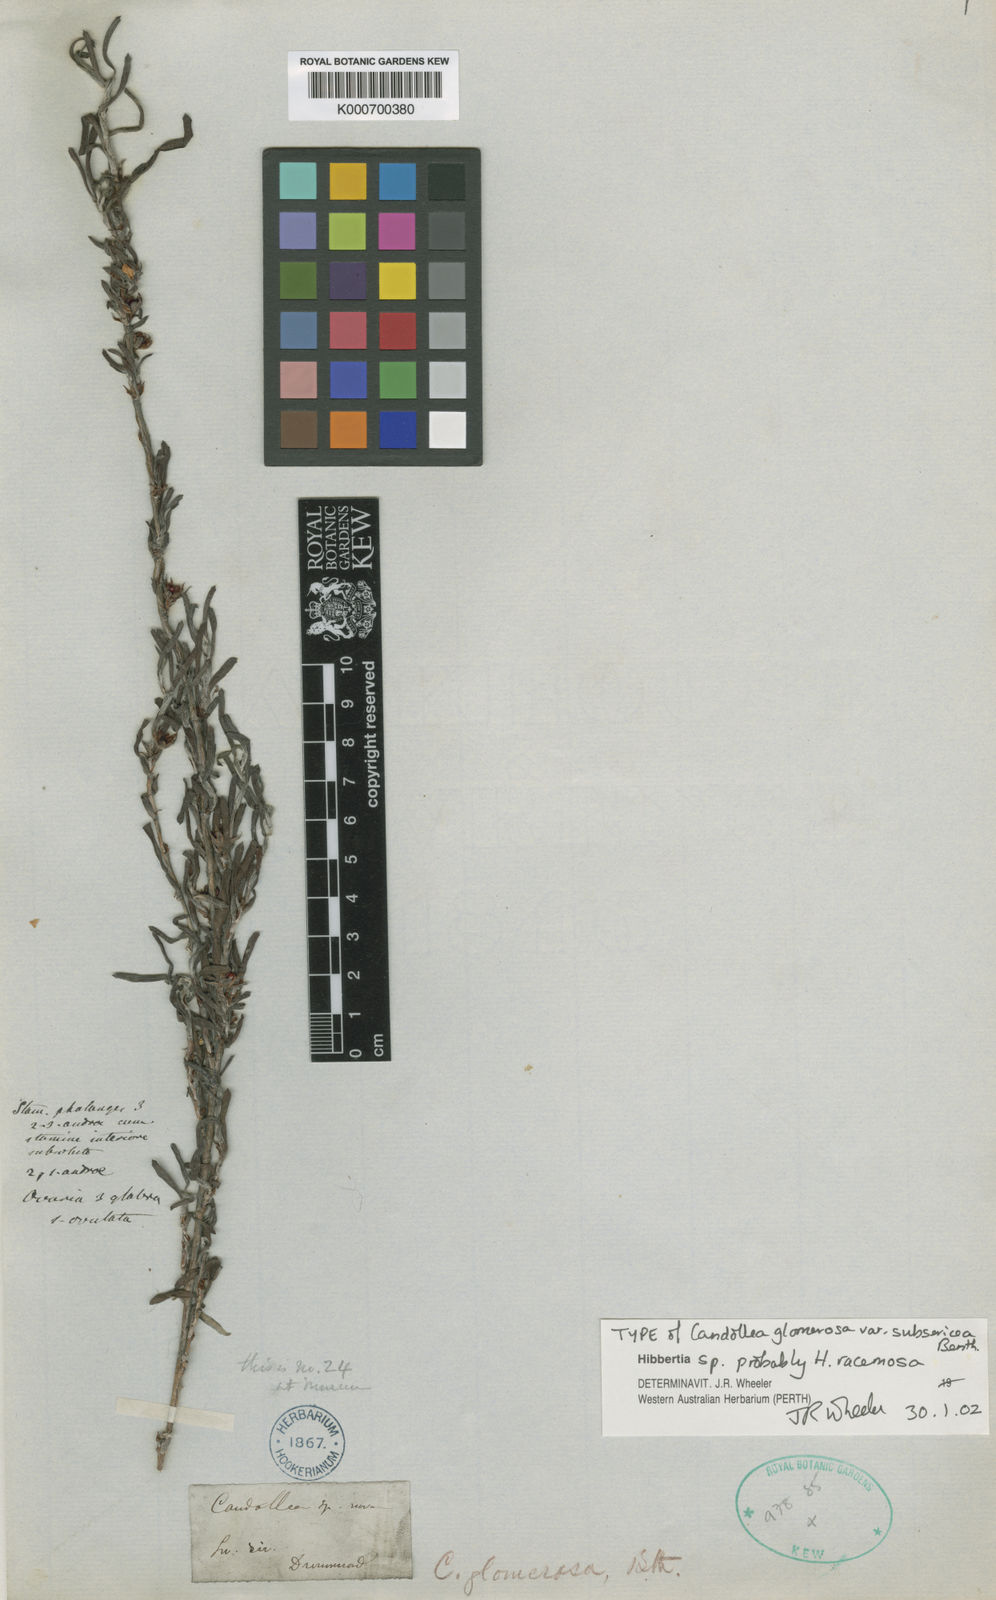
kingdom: Plantae
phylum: Tracheophyta
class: Magnoliopsida
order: Dilleniales
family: Dilleniaceae
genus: Hibbertia
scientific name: Hibbertia glomerosa
